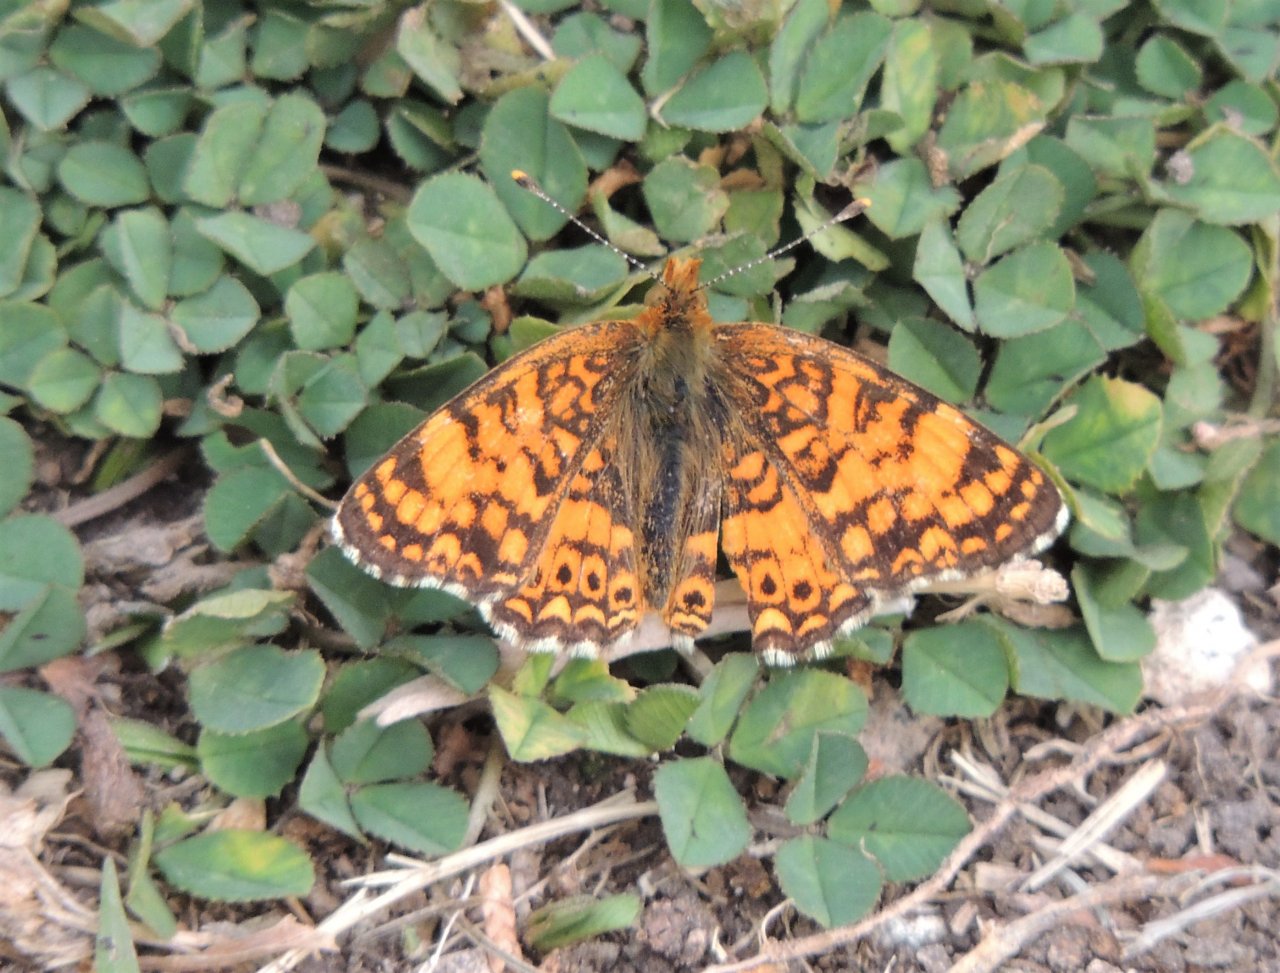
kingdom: Animalia
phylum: Arthropoda
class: Insecta
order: Lepidoptera
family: Nymphalidae
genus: Eresia
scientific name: Eresia aveyrona
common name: Mylitta Crescent
